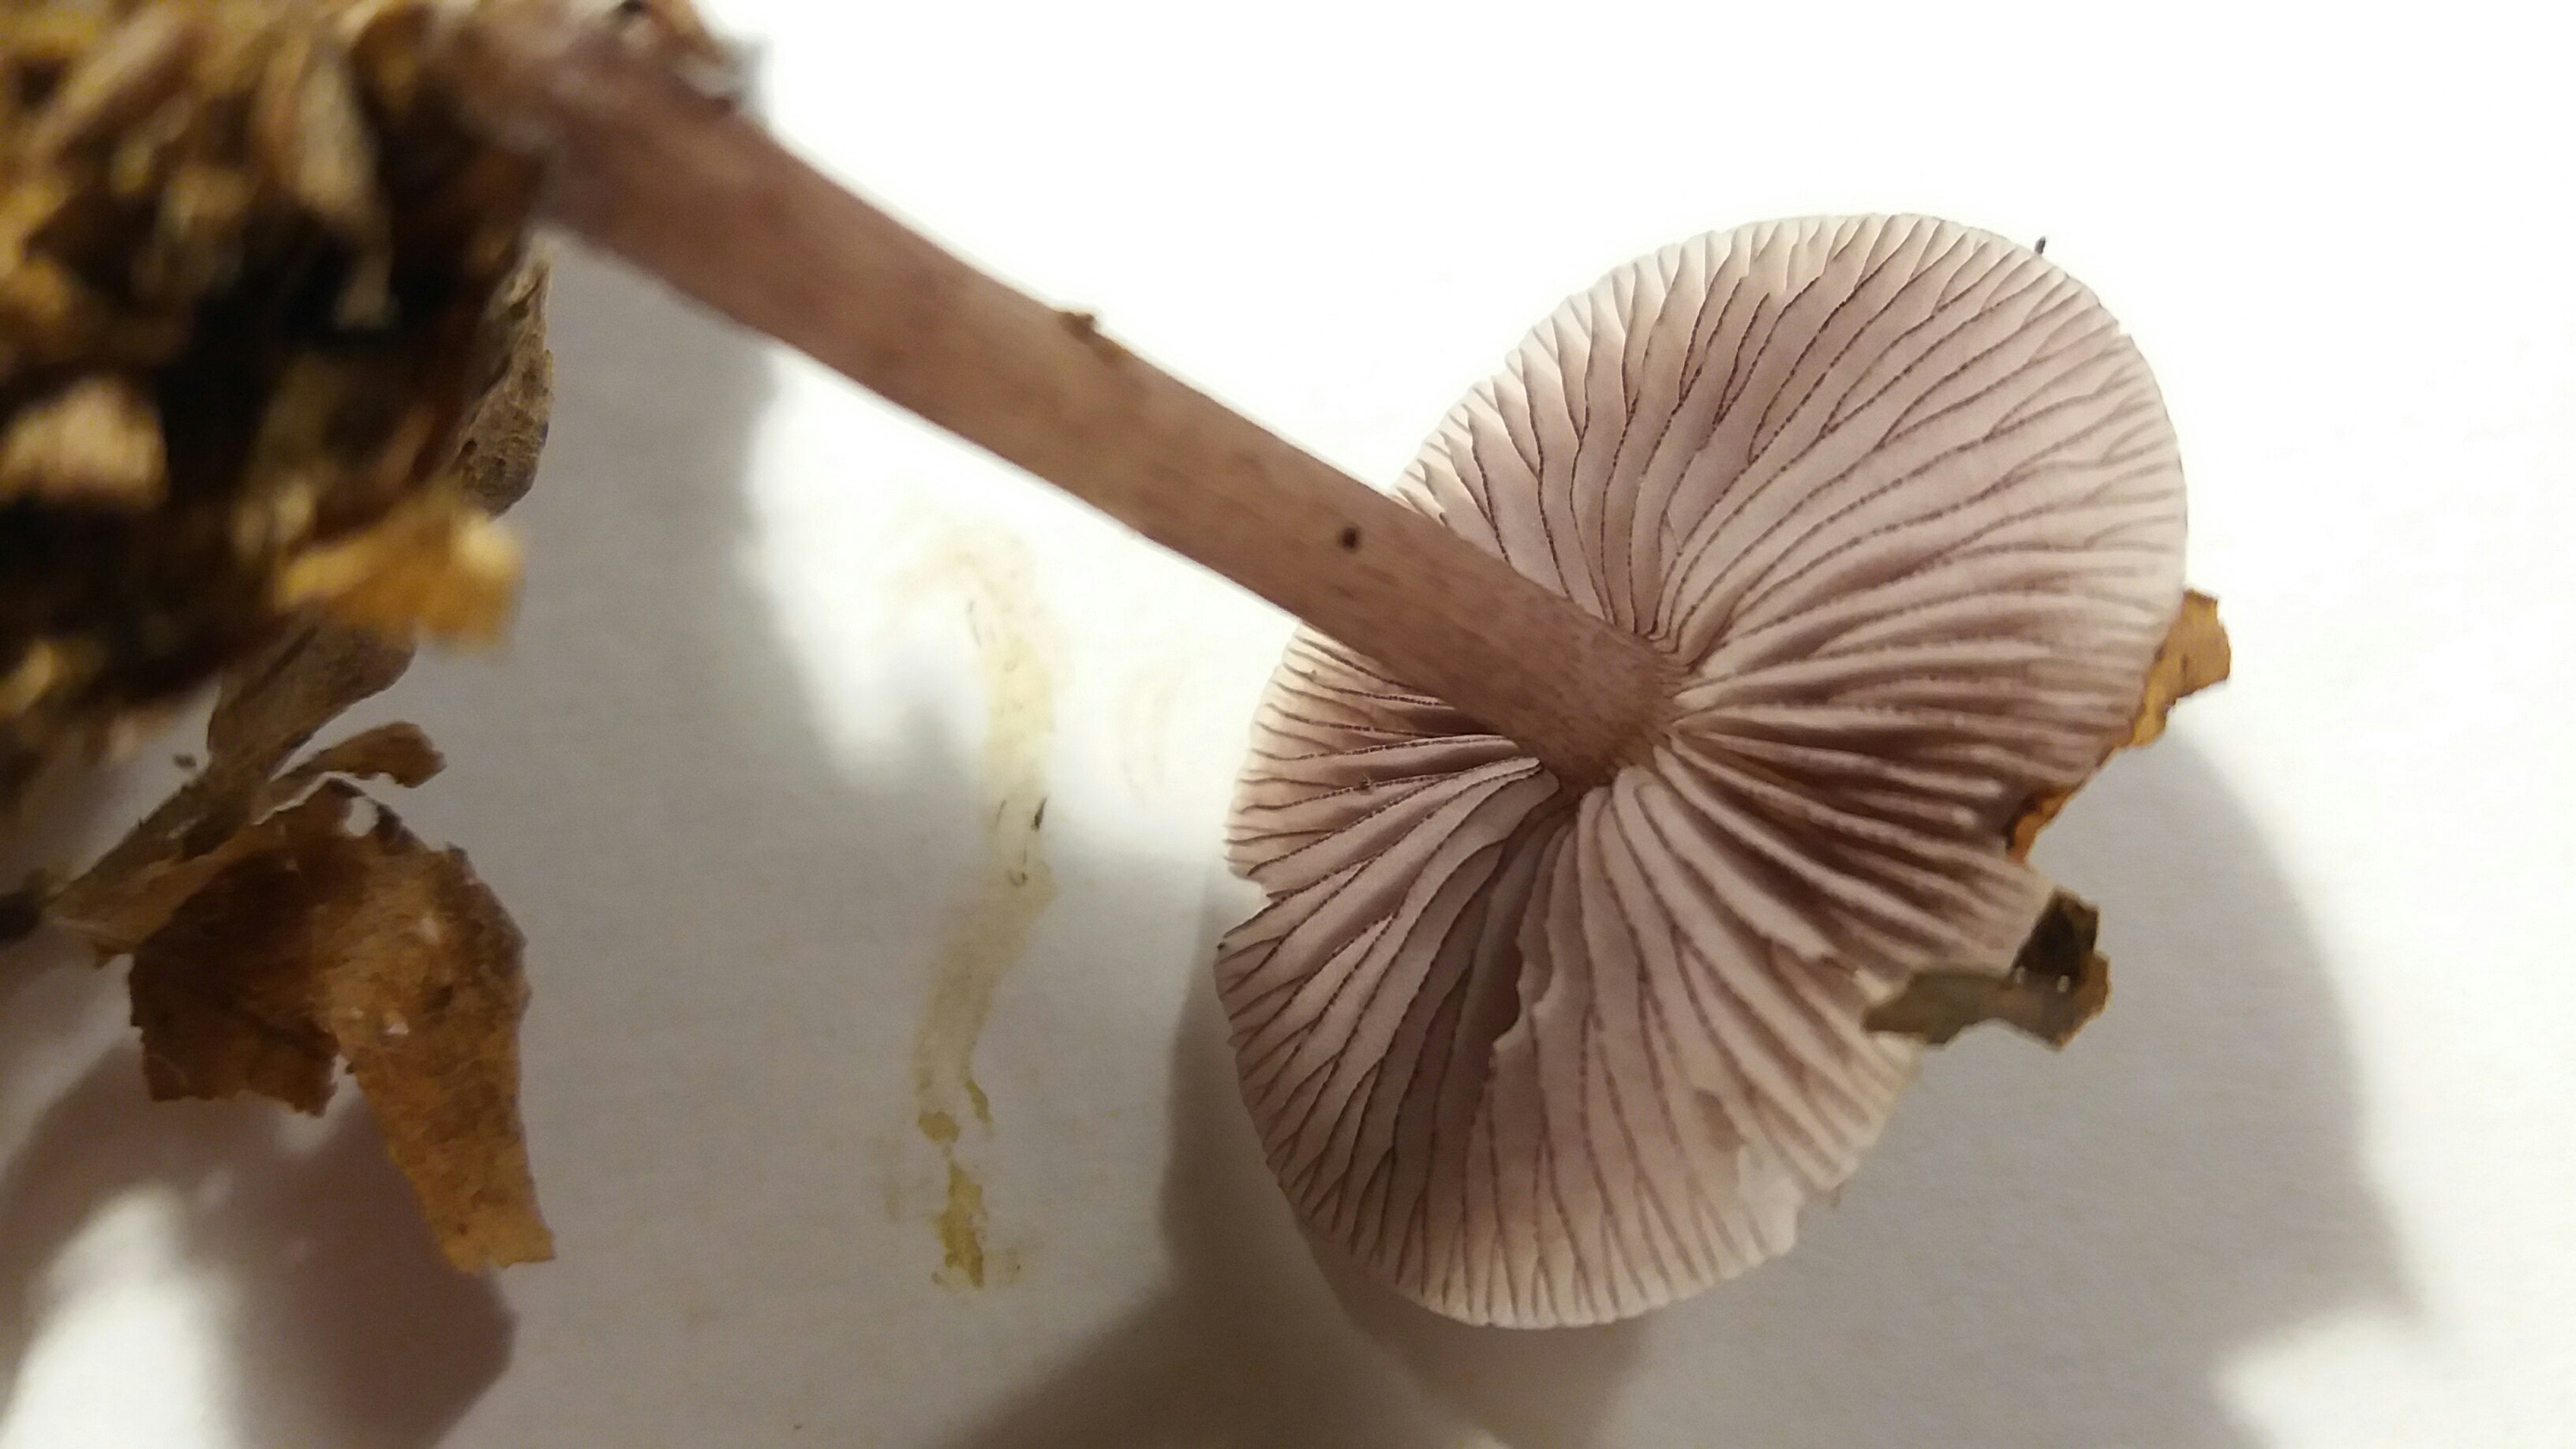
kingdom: Fungi
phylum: Basidiomycota
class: Agaricomycetes
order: Agaricales
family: Mycenaceae
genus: Mycena
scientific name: Mycena pelianthina
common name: mørkbladet huesvamp
